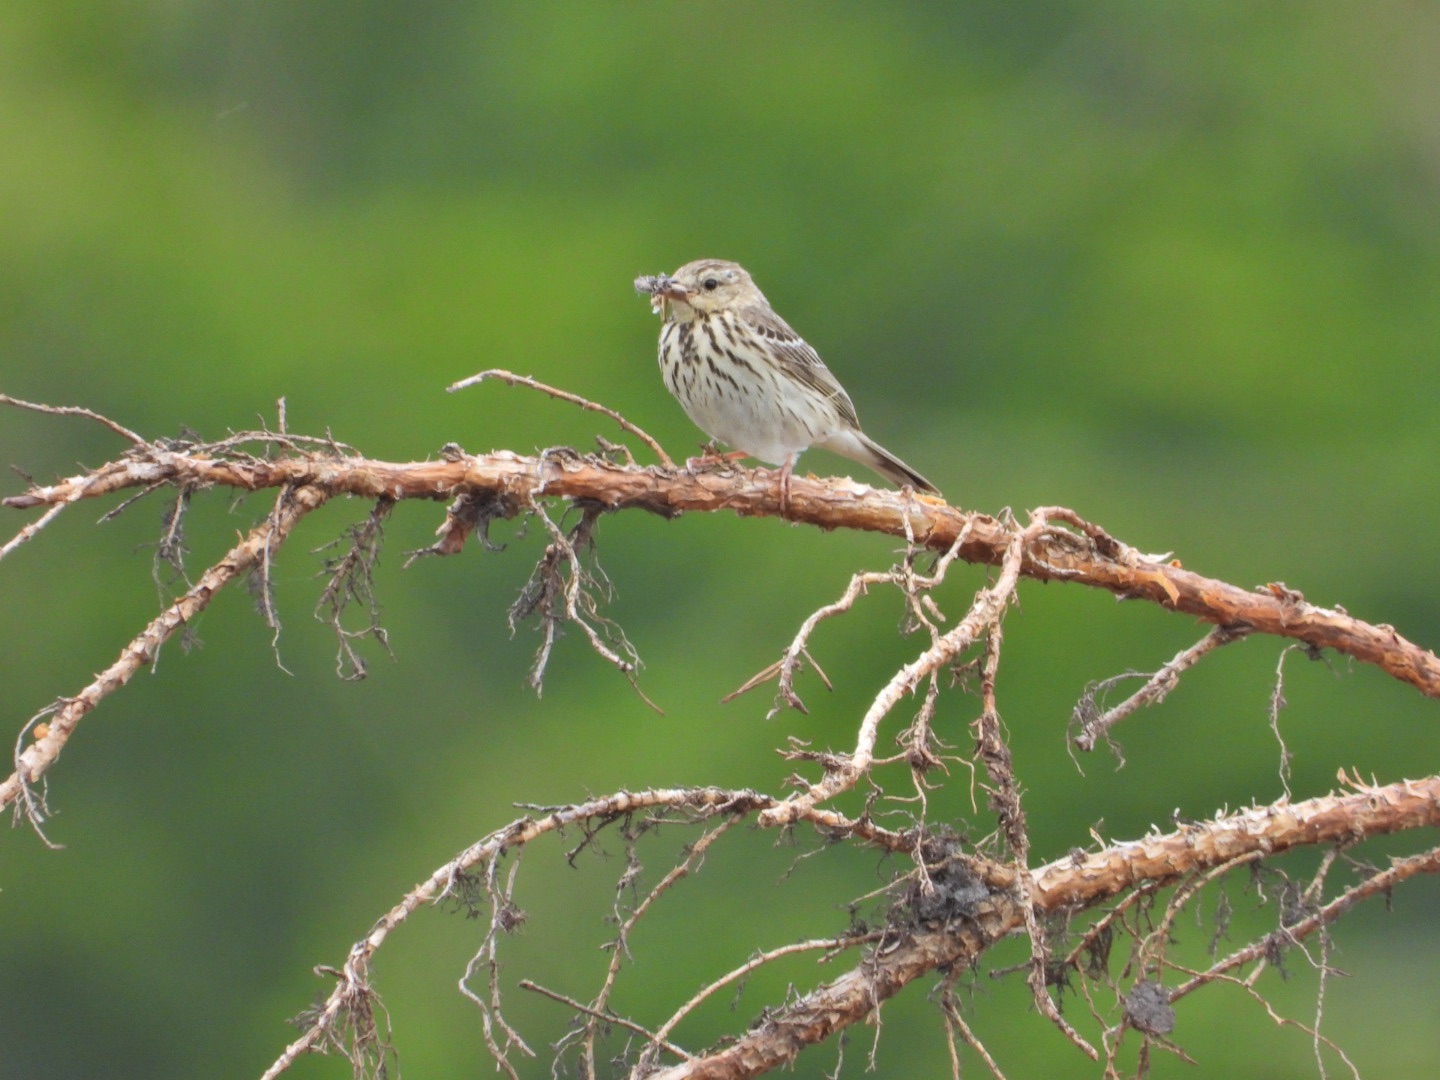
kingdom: Animalia
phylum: Chordata
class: Aves
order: Passeriformes
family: Motacillidae
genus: Anthus
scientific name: Anthus trivialis
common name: Skovpiber
